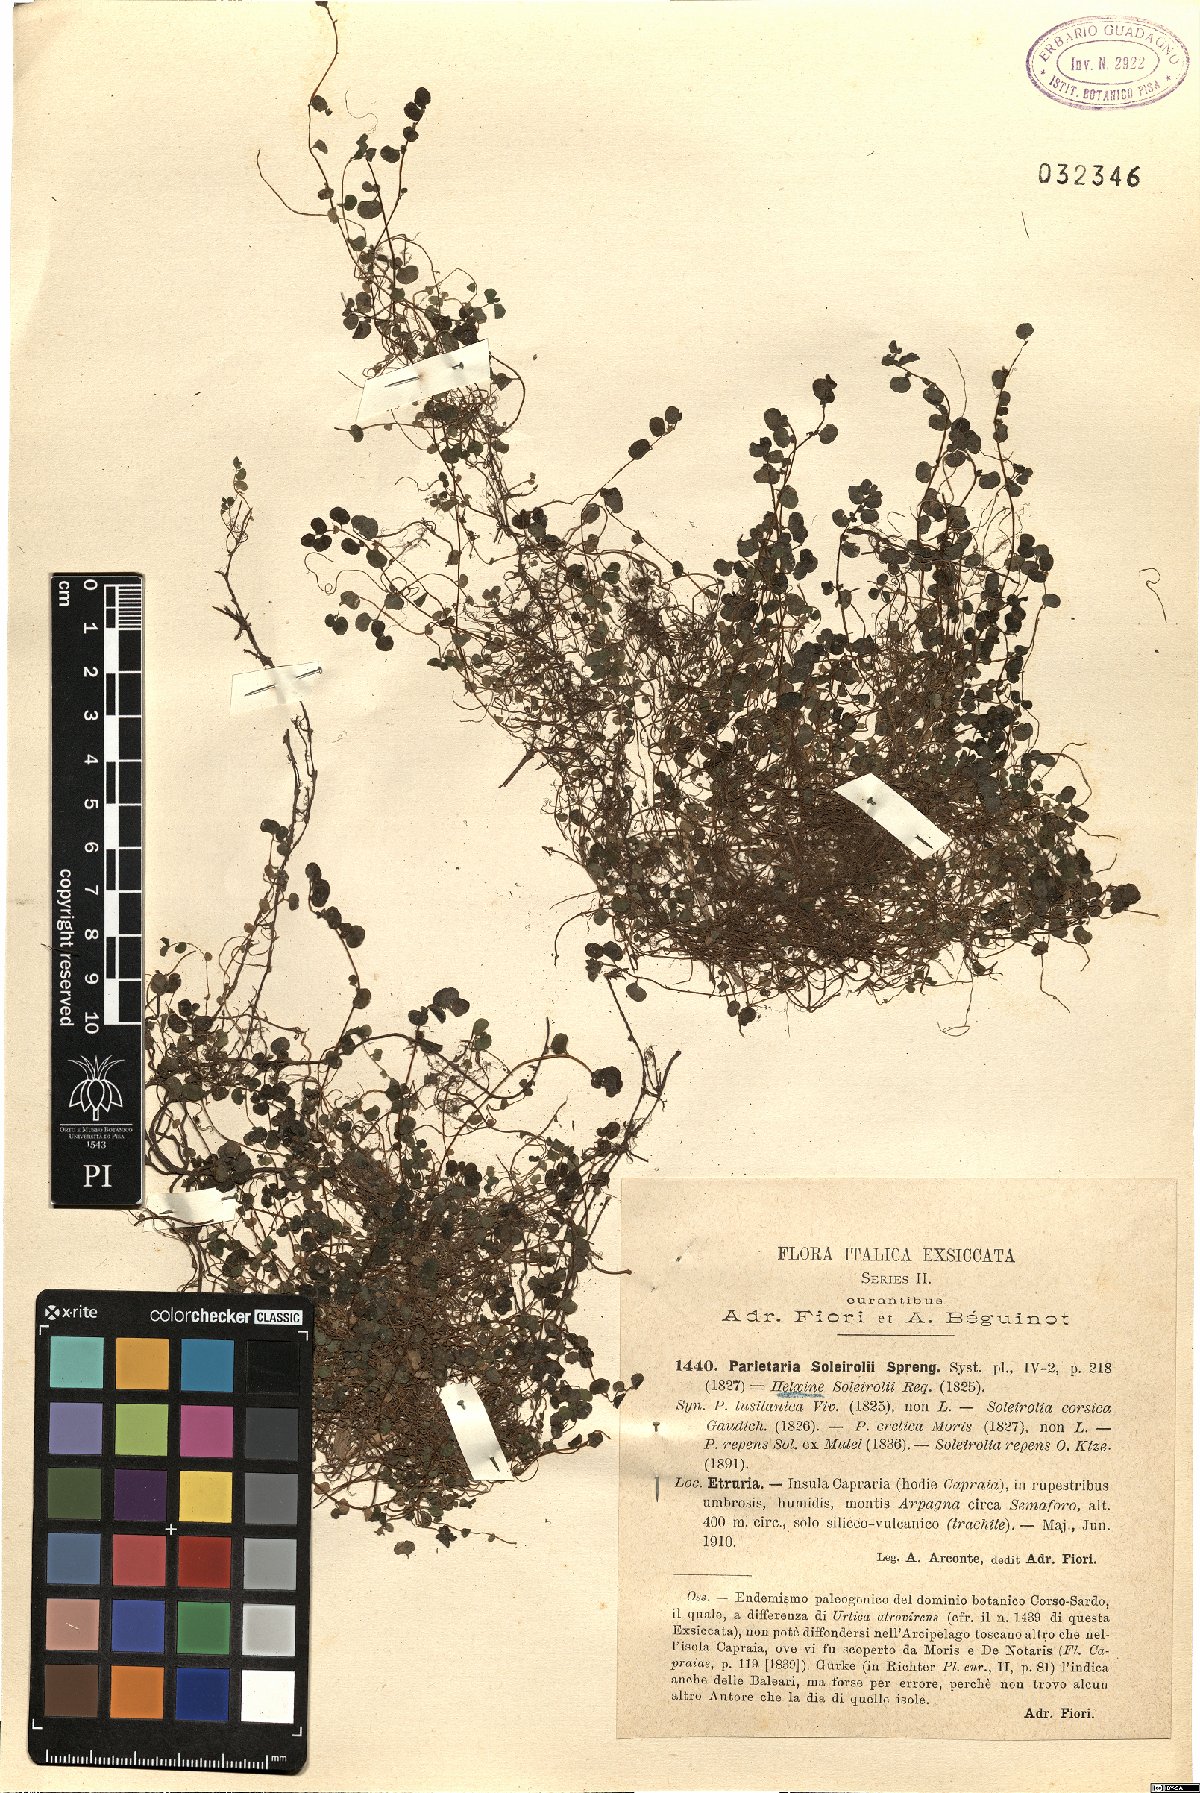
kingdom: Plantae
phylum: Tracheophyta
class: Magnoliopsida
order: Rosales
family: Urticaceae
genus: Soleirolia
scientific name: Soleirolia soleirolii
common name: Mind-your-own-business
